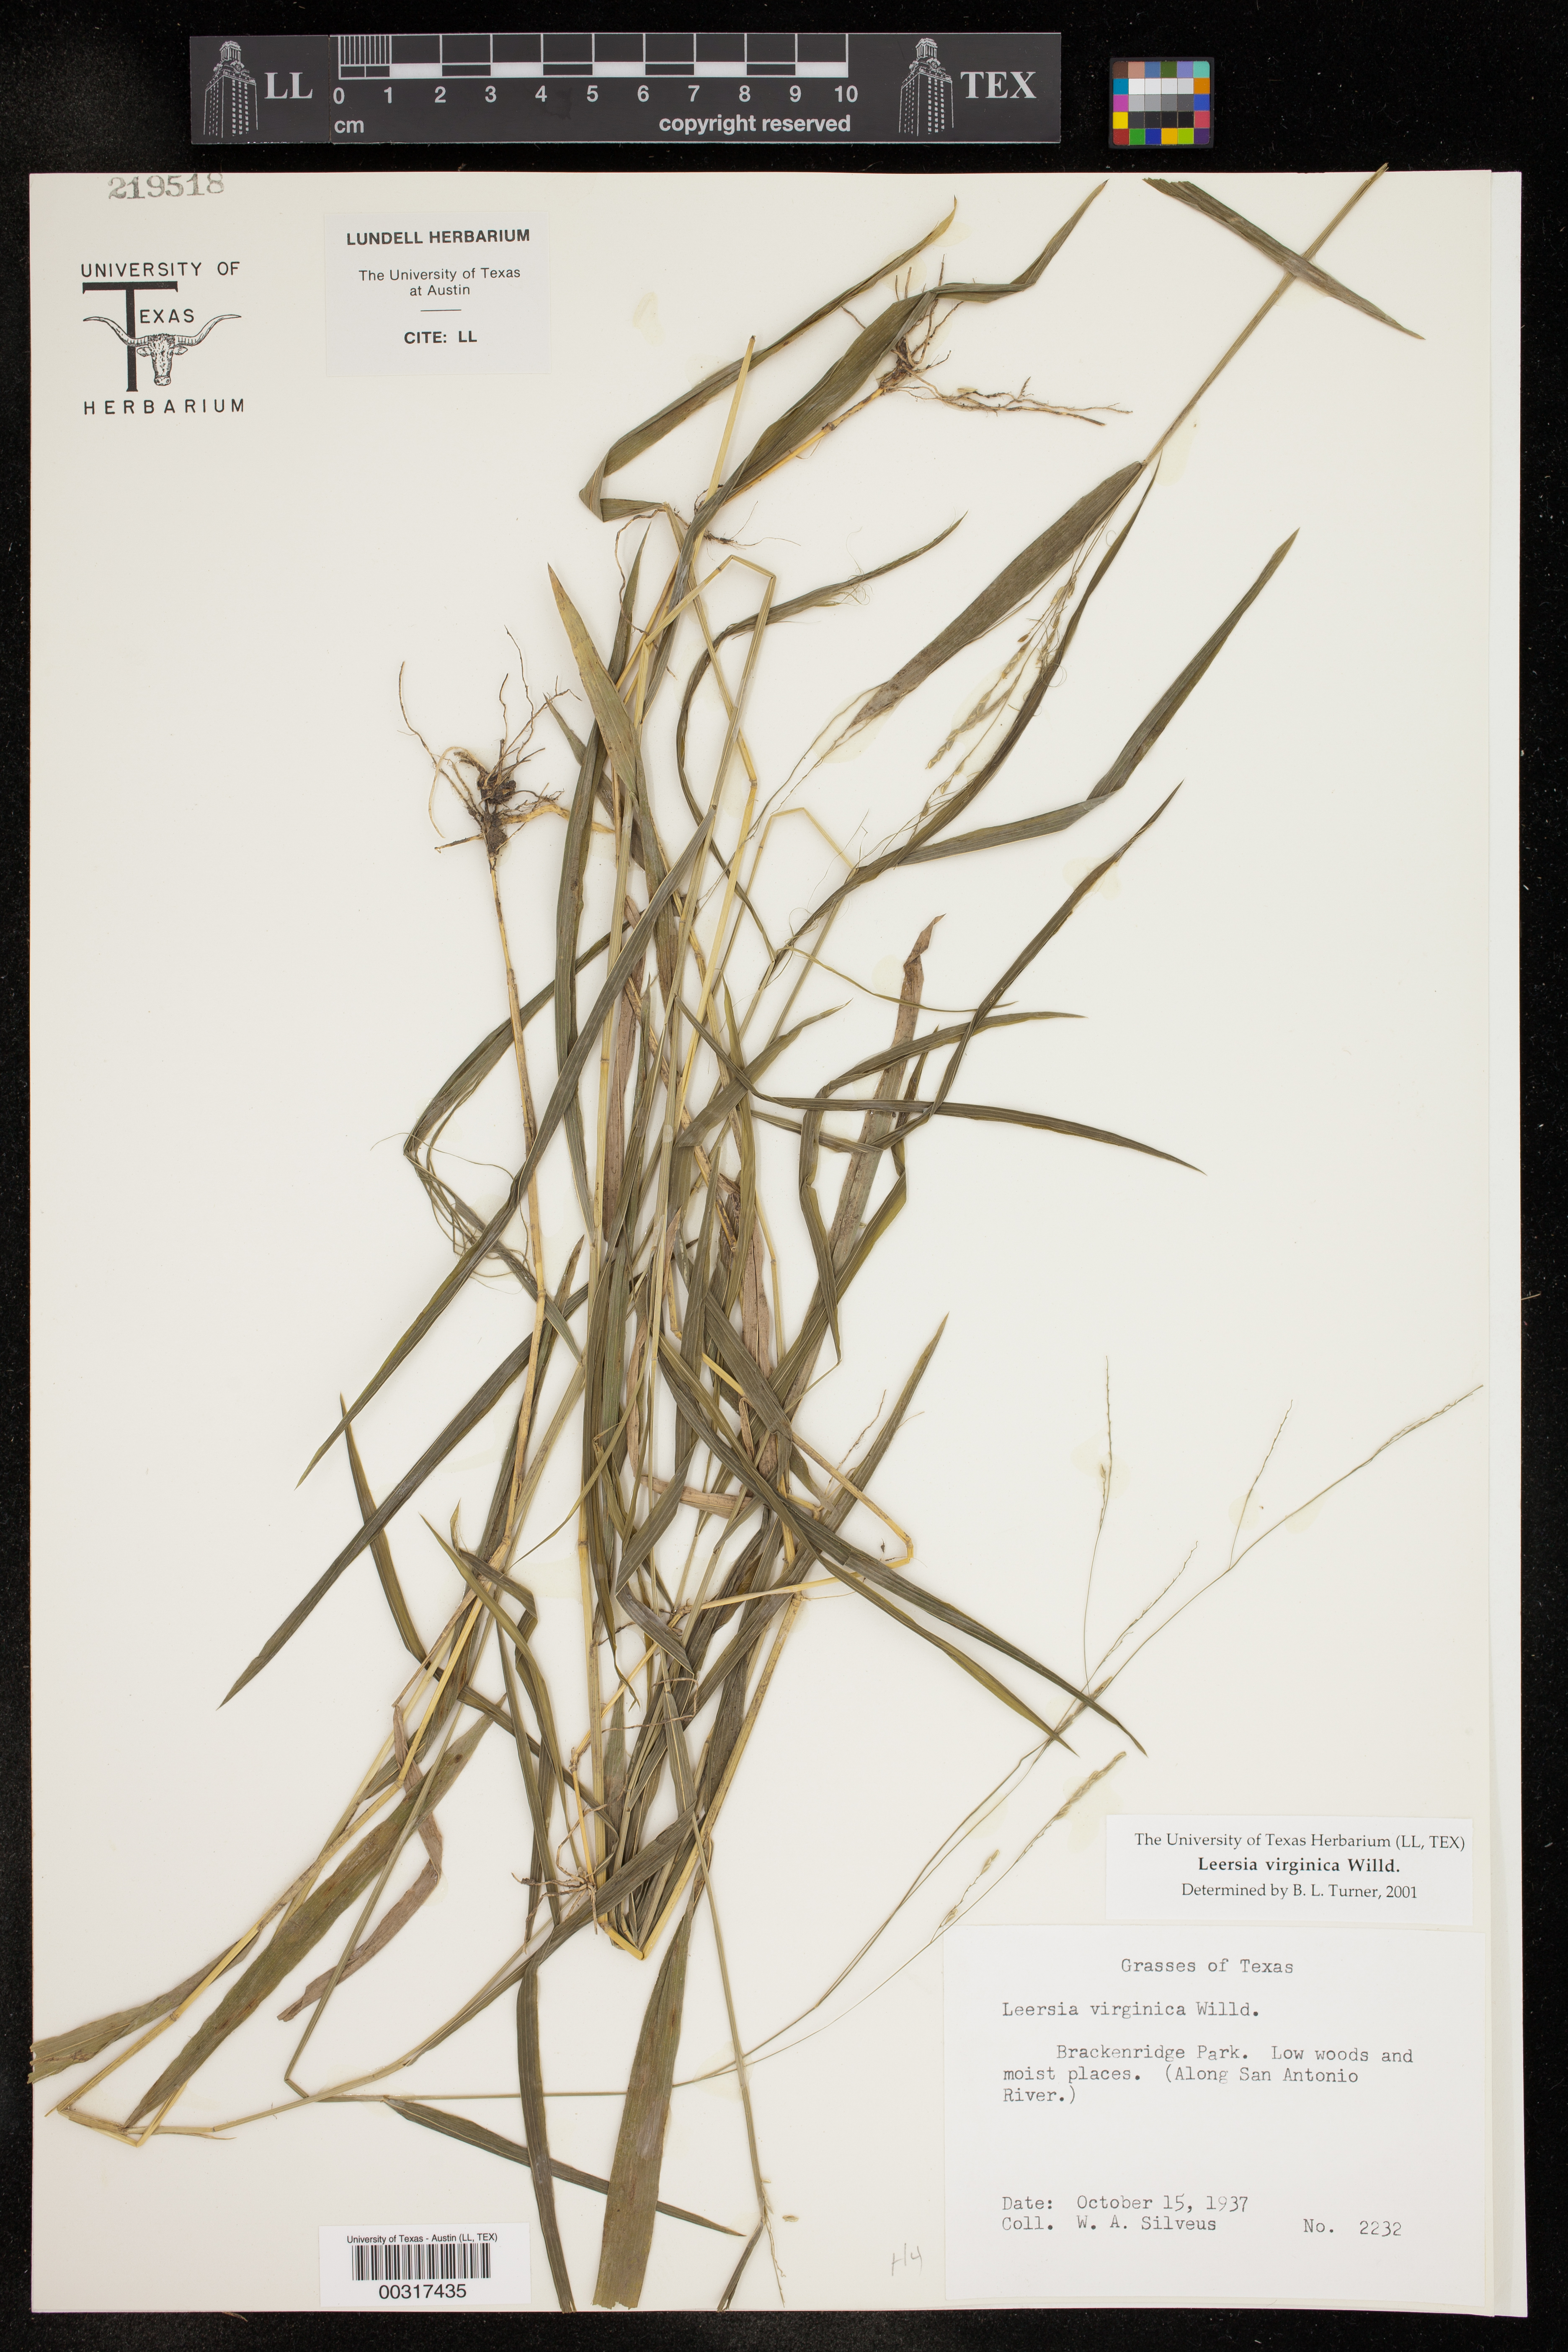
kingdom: Plantae
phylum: Tracheophyta
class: Liliopsida
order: Poales
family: Poaceae
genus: Leersia
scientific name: Leersia virginica
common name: White cutgrass
